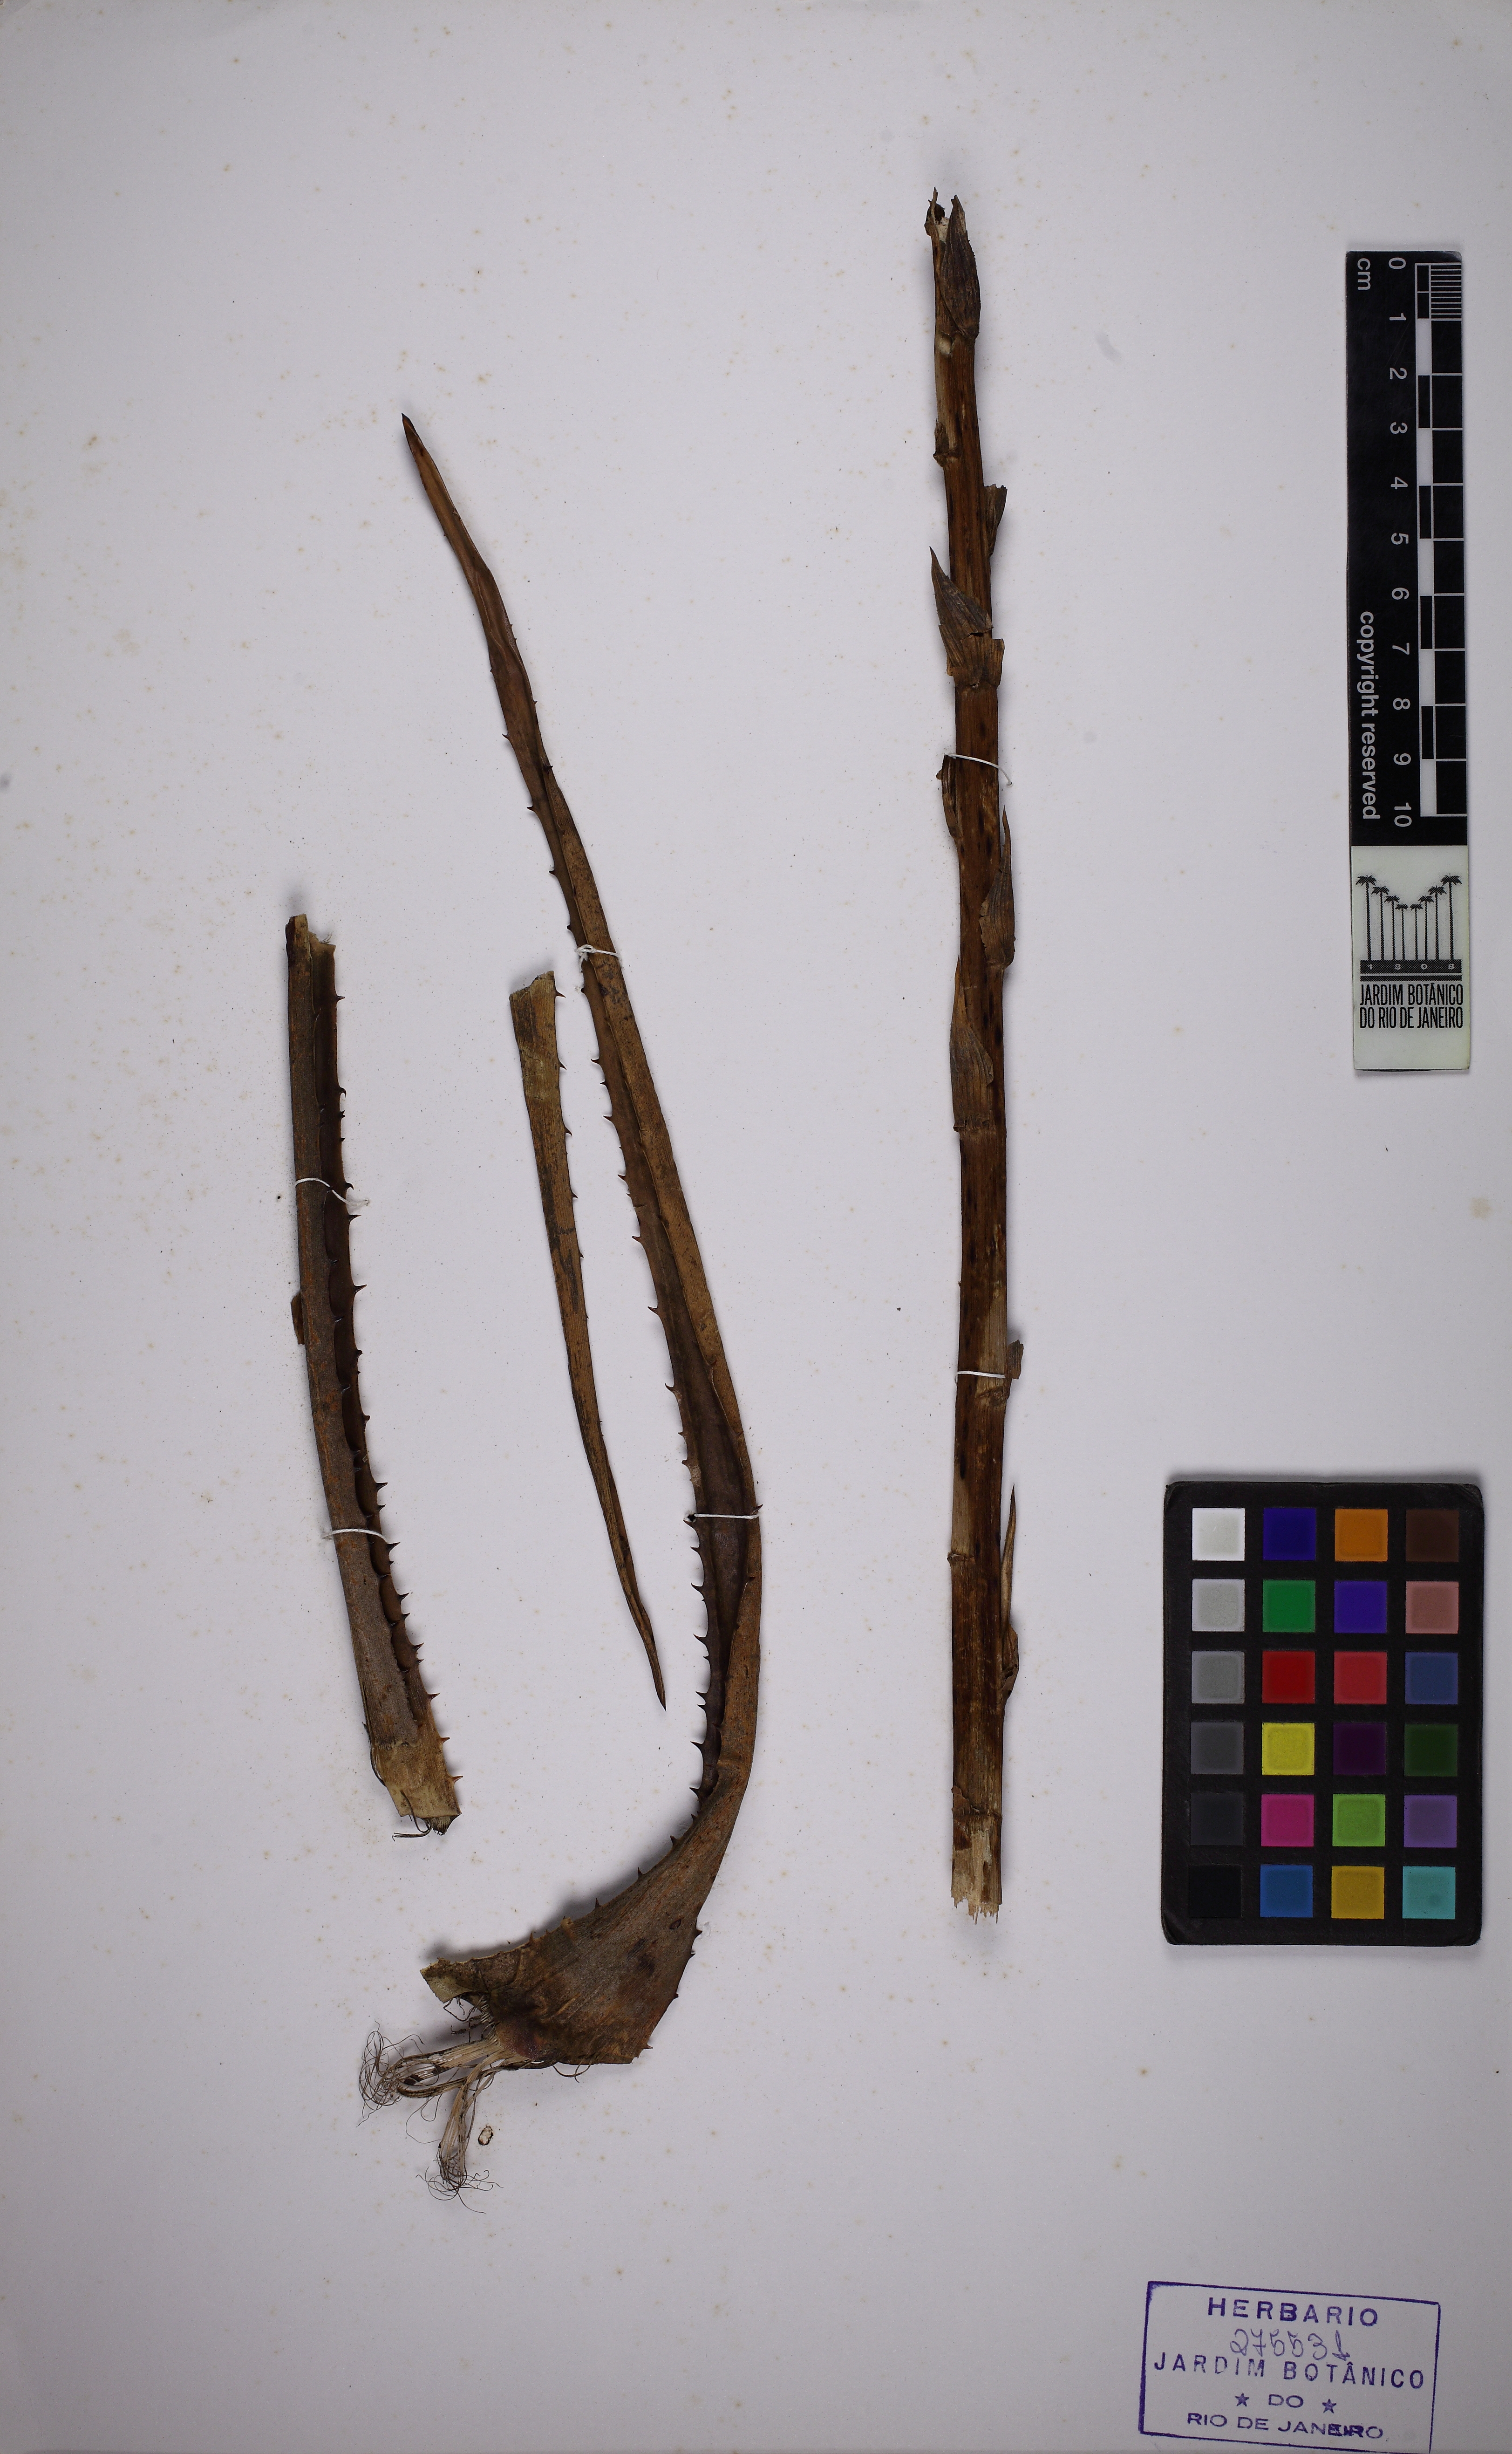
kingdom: Plantae
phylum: Tracheophyta
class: Liliopsida
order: Poales
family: Bromeliaceae
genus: Dyckia
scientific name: Dyckia cinerea
